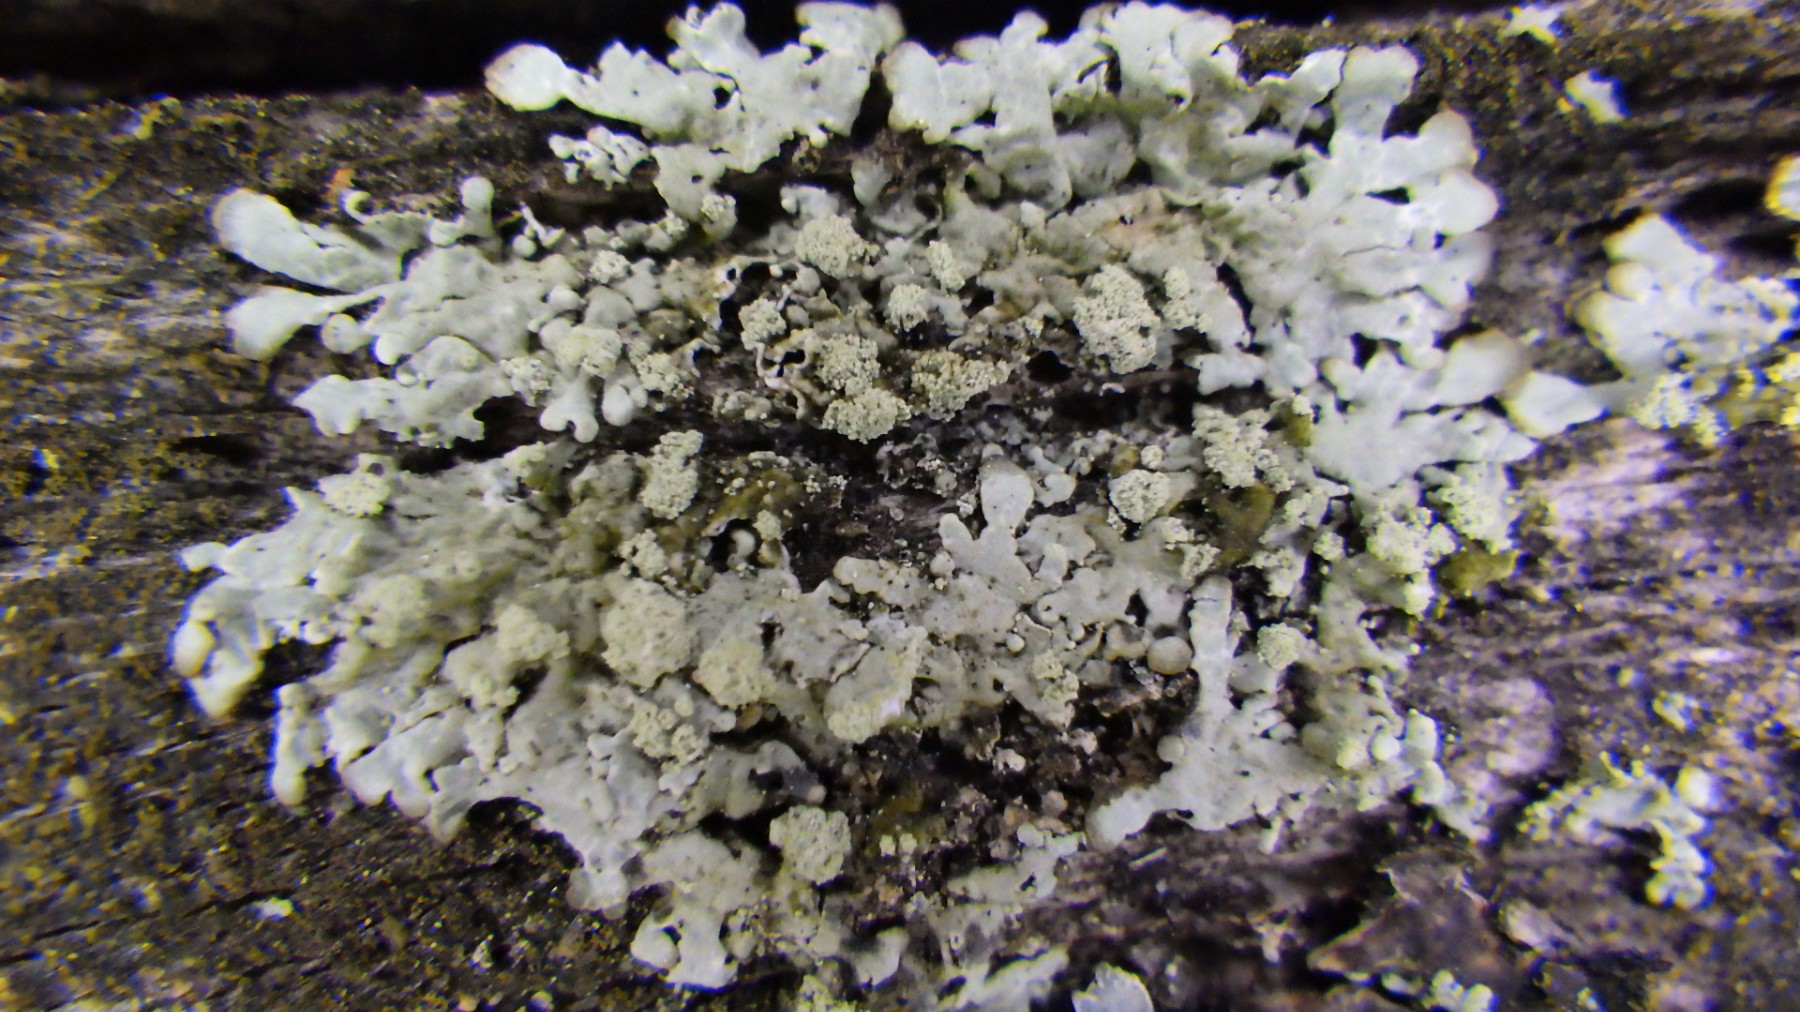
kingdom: Fungi
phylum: Ascomycota
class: Lecanoromycetes
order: Lecanorales
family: Parmeliaceae
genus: Parmeliopsis
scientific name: Parmeliopsis ambigua
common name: gul stolpelav
